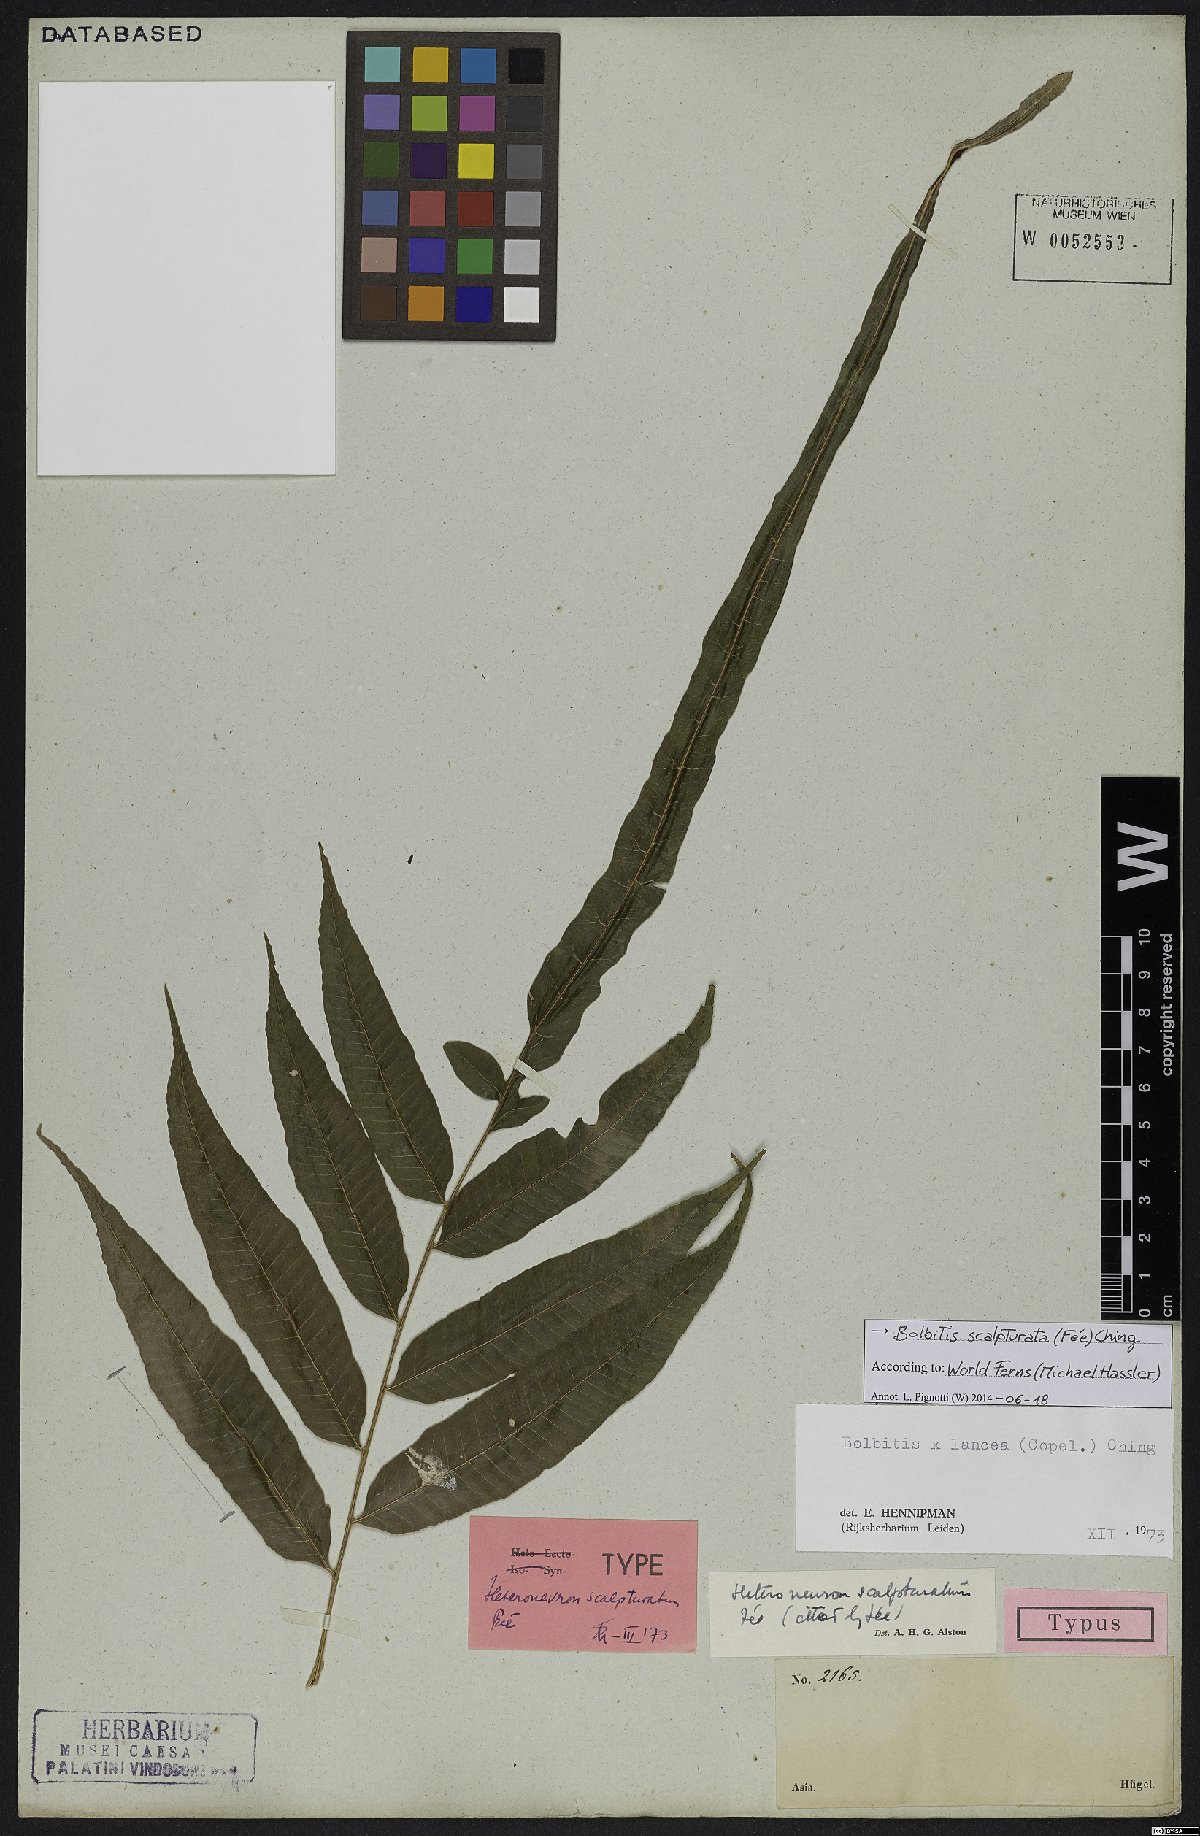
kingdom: Plantae
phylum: Tracheophyta
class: Polypodiopsida
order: Polypodiales
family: Dryopteridaceae
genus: Bolbitis
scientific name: Bolbitis scalpturata
